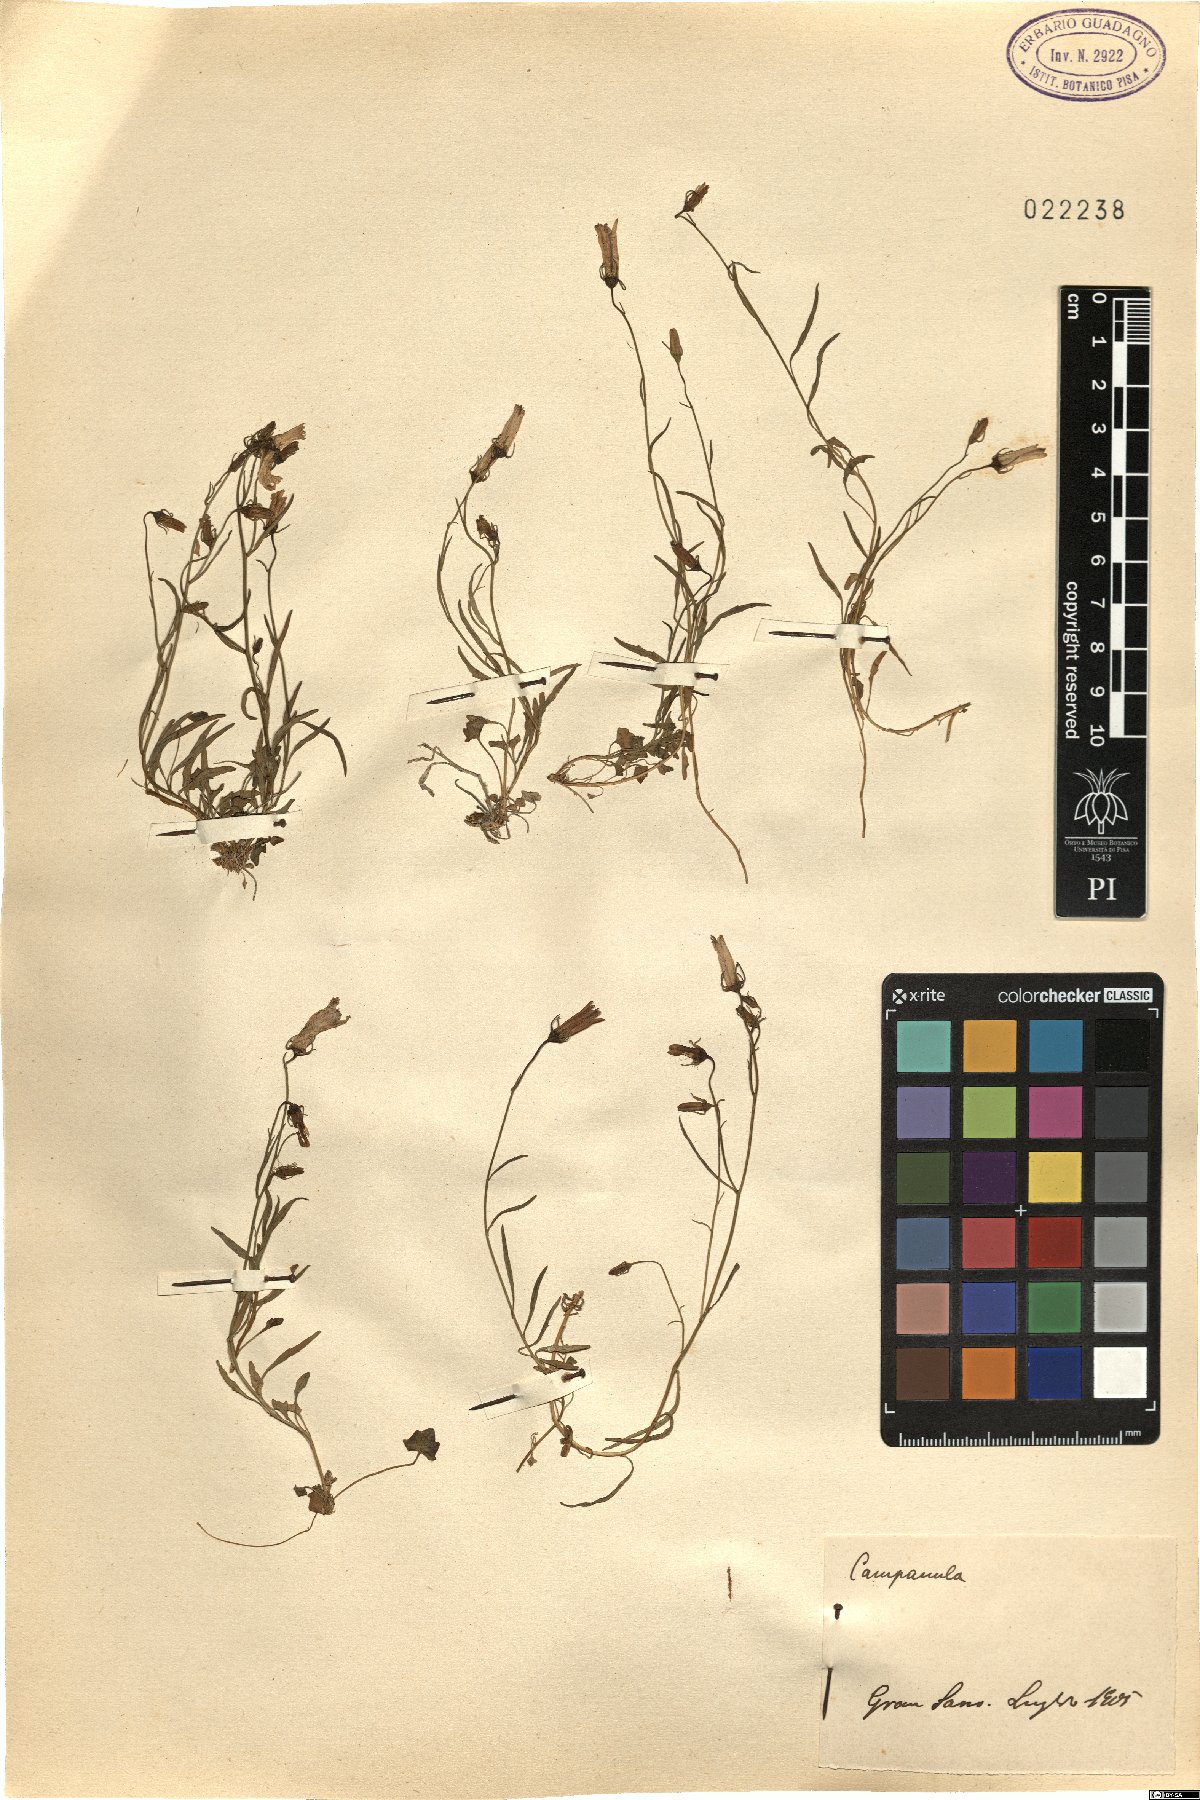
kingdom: Plantae
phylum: Tracheophyta
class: Magnoliopsida
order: Asterales
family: Campanulaceae
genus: Campanula
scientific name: Campanula
